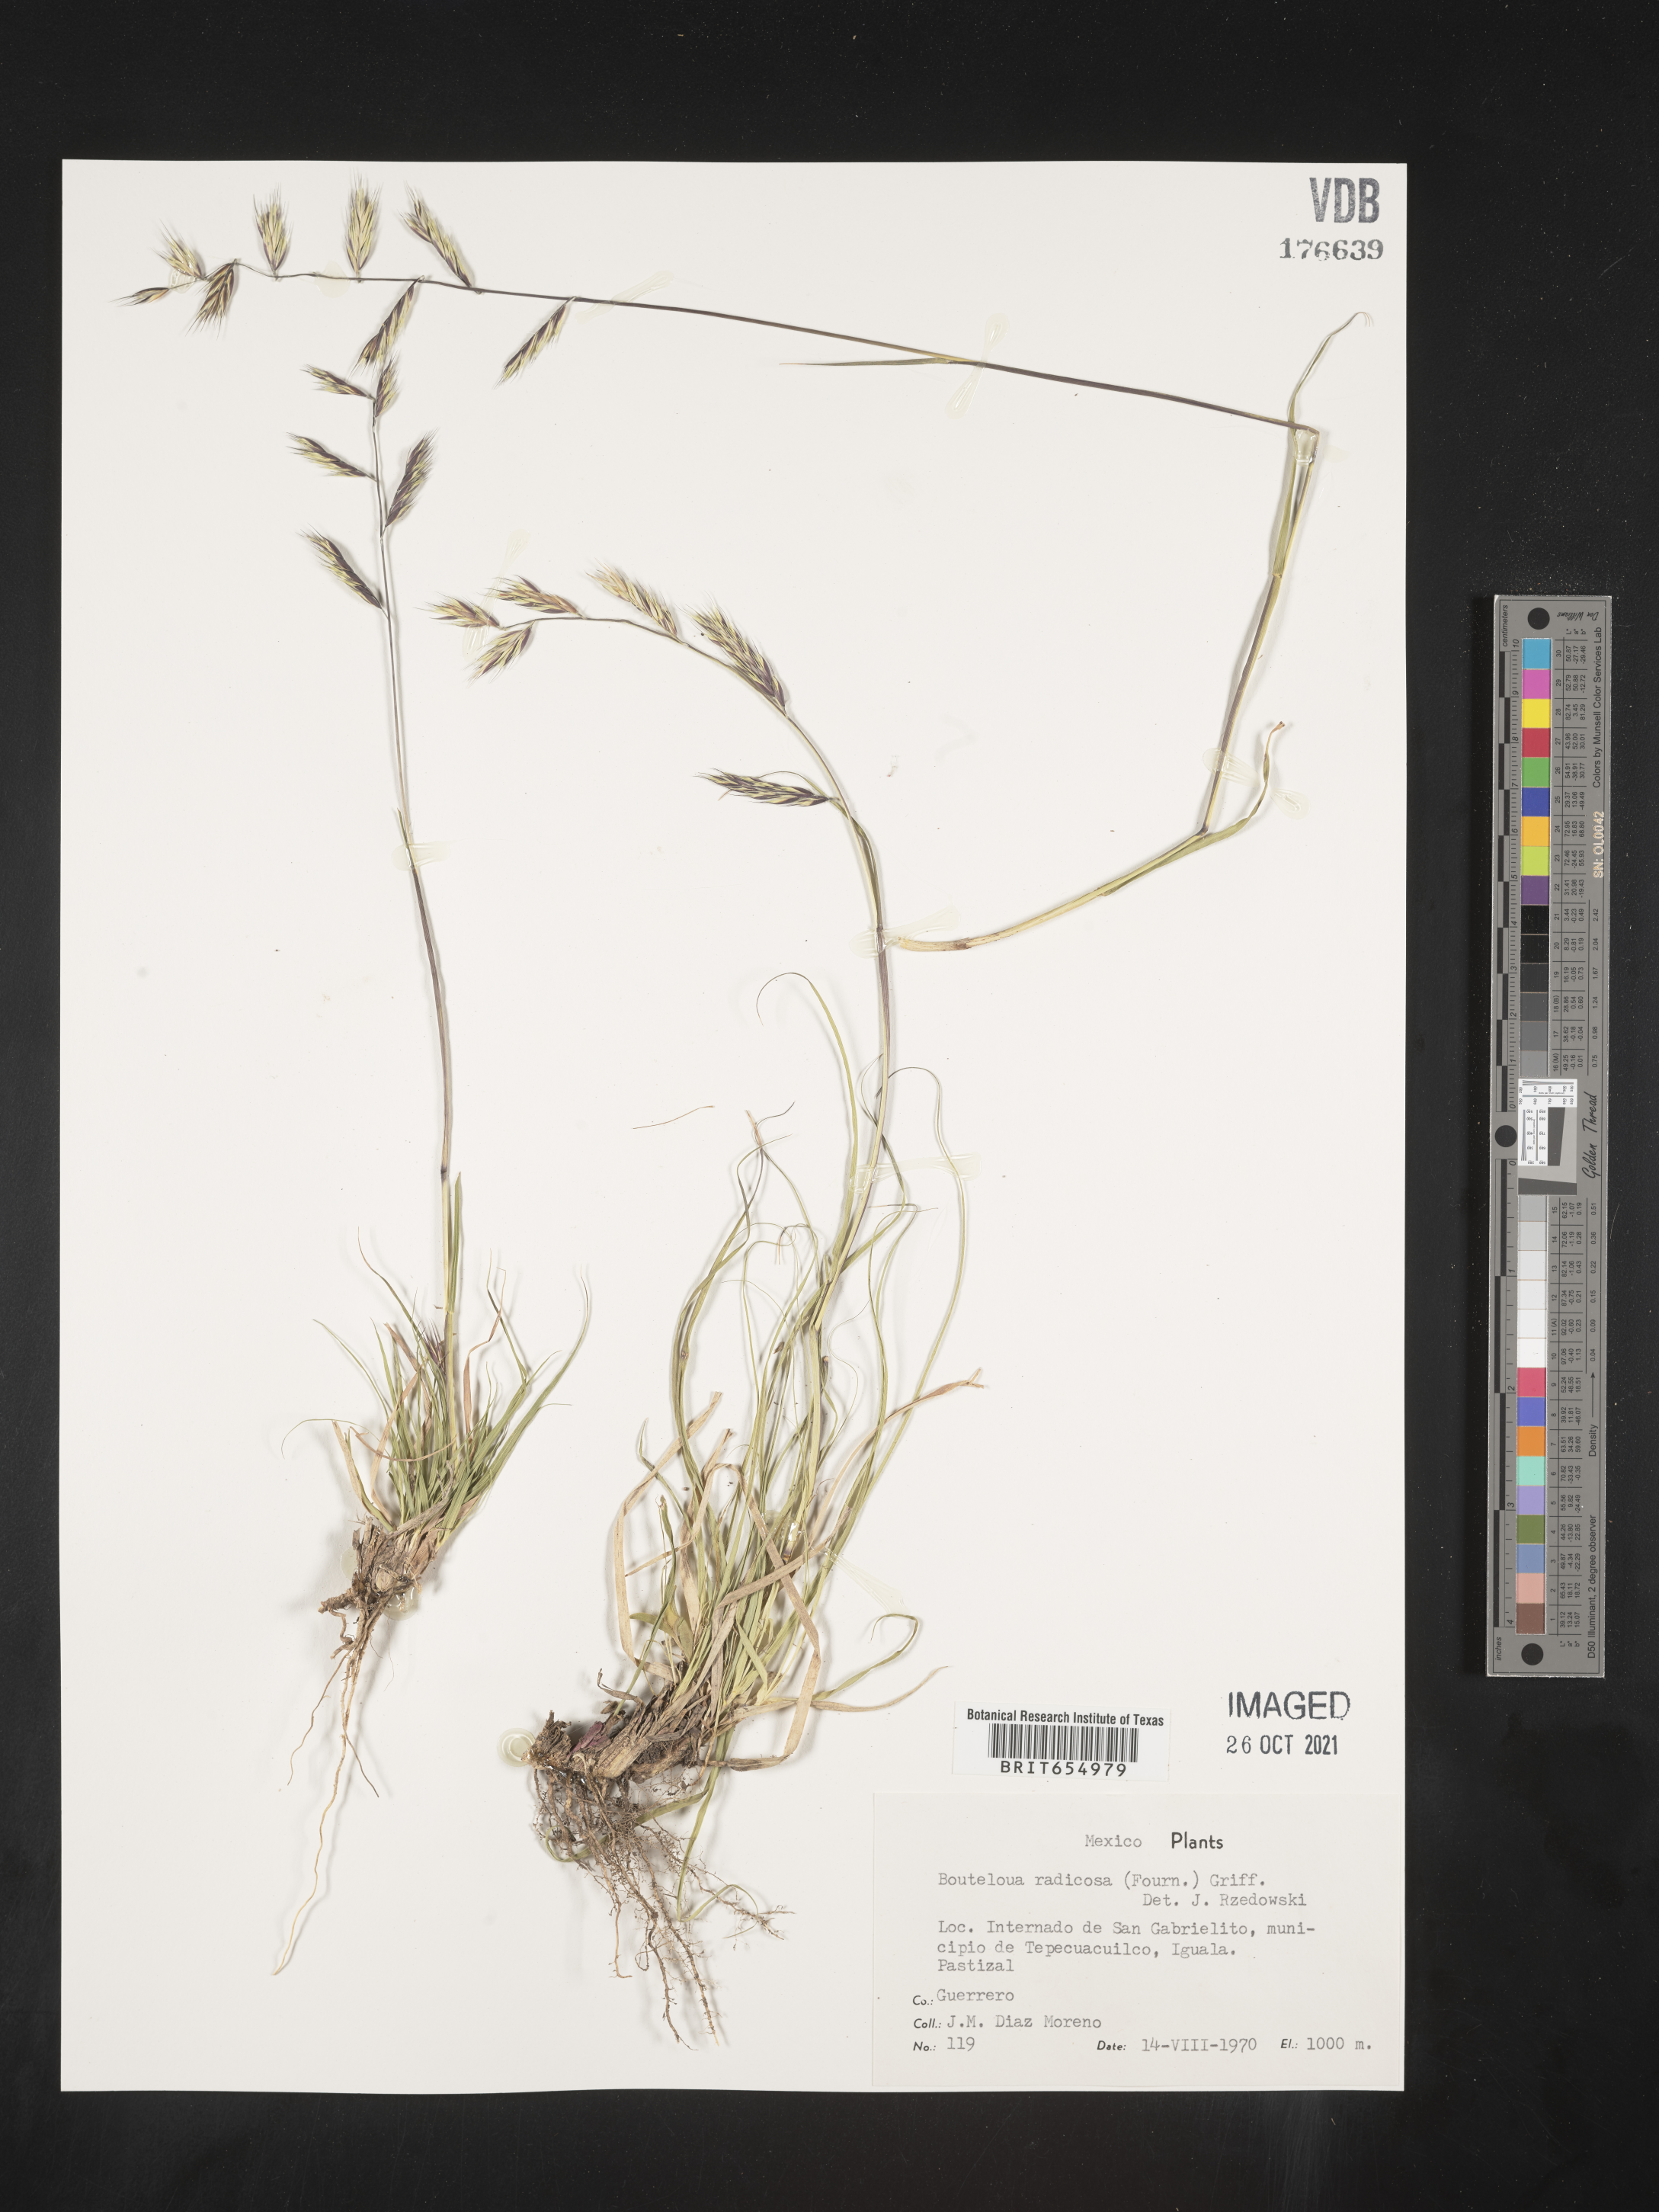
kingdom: Plantae
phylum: Tracheophyta
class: Liliopsida
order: Poales
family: Poaceae
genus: Bouteloua
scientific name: Bouteloua
